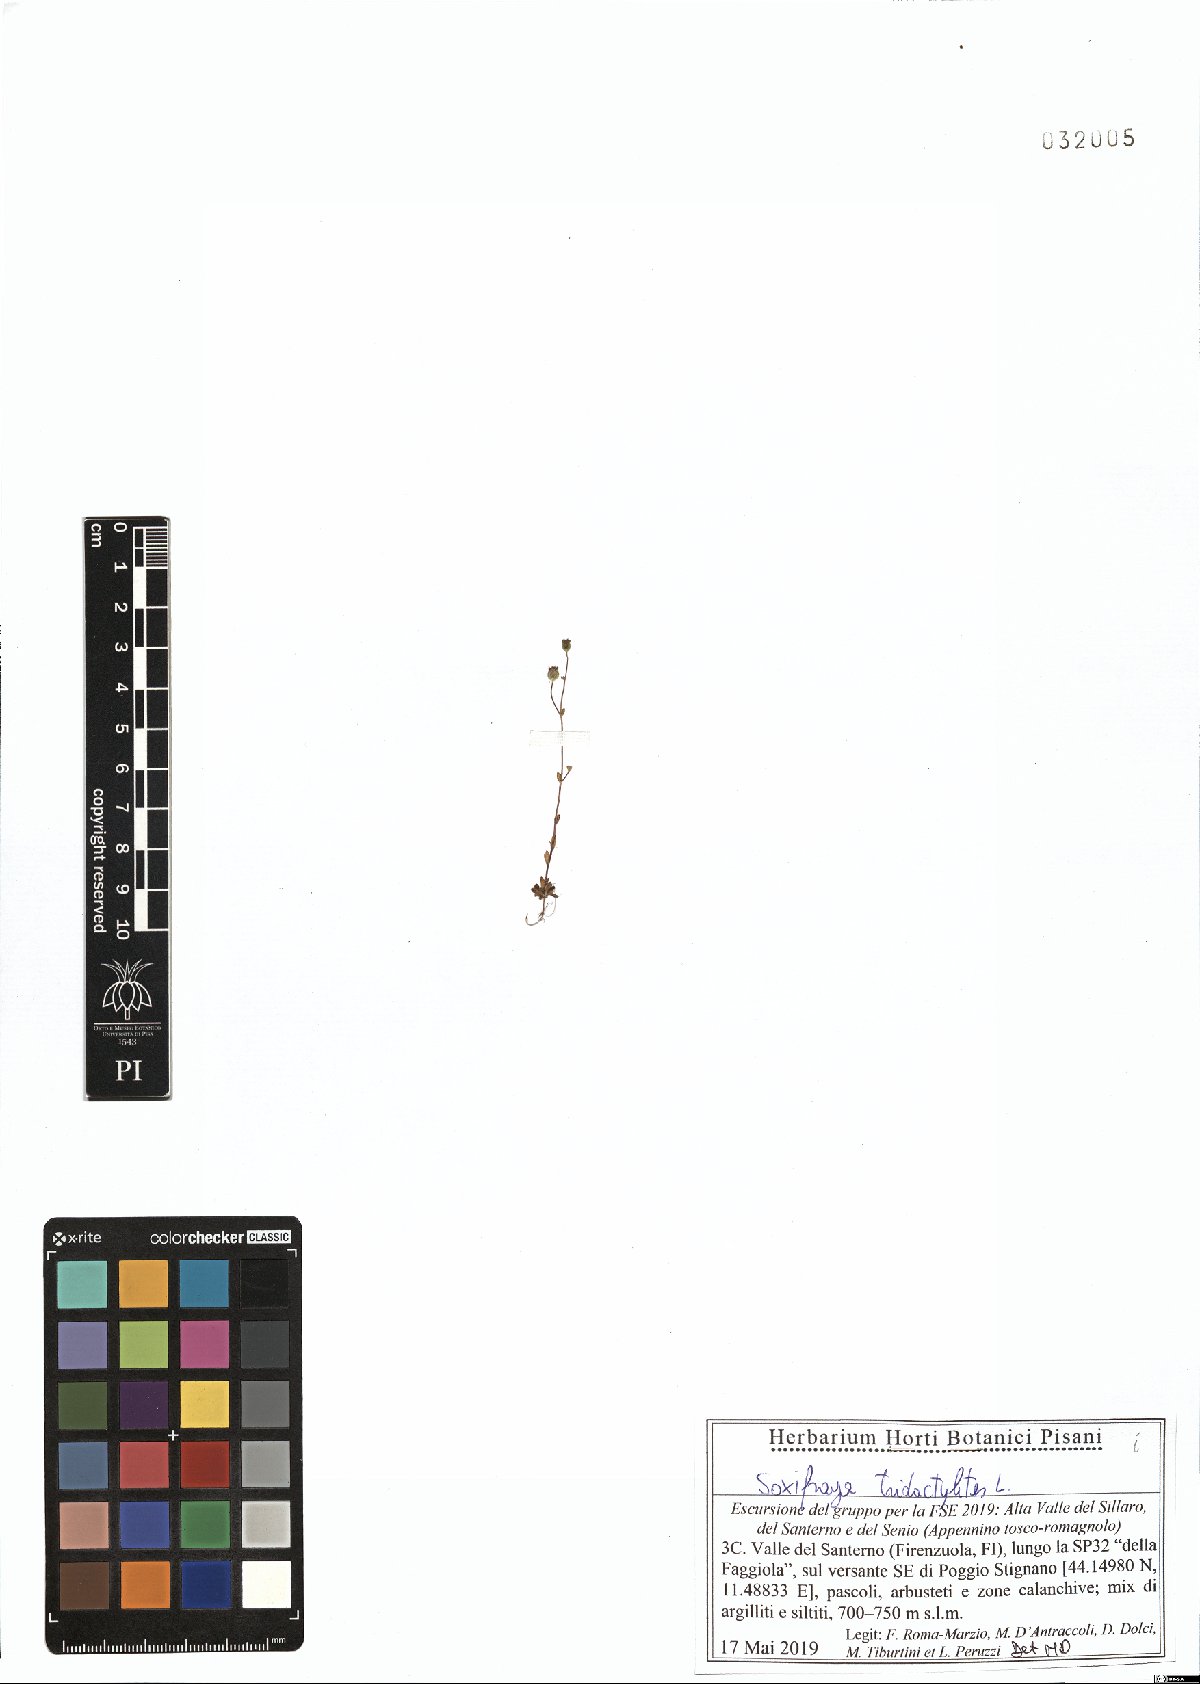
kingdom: Plantae
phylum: Tracheophyta
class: Magnoliopsida
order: Saxifragales
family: Saxifragaceae
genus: Saxifraga
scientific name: Saxifraga tridactylites
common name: Rue-leaved saxifrage
